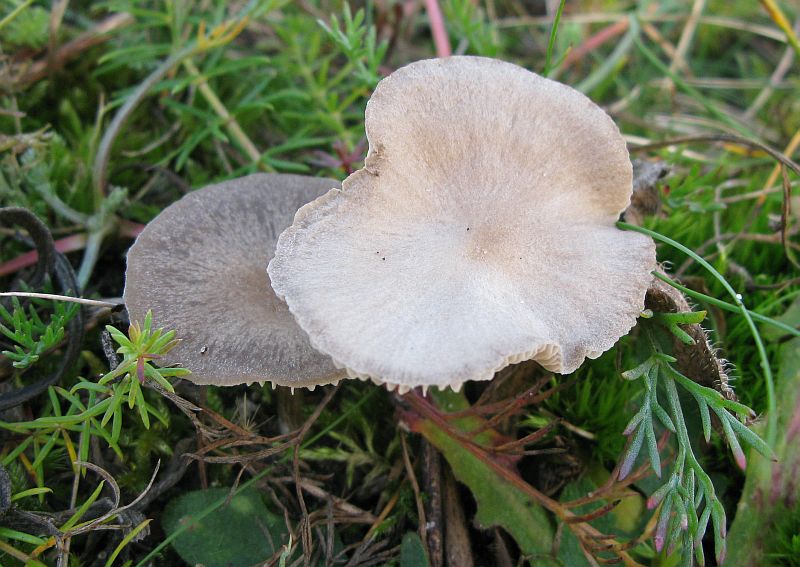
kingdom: Fungi
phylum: Basidiomycota
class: Agaricomycetes
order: Agaricales
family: Entolomataceae
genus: Entoloma
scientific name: Entoloma sericeum
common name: silkeglinsende rødblad
